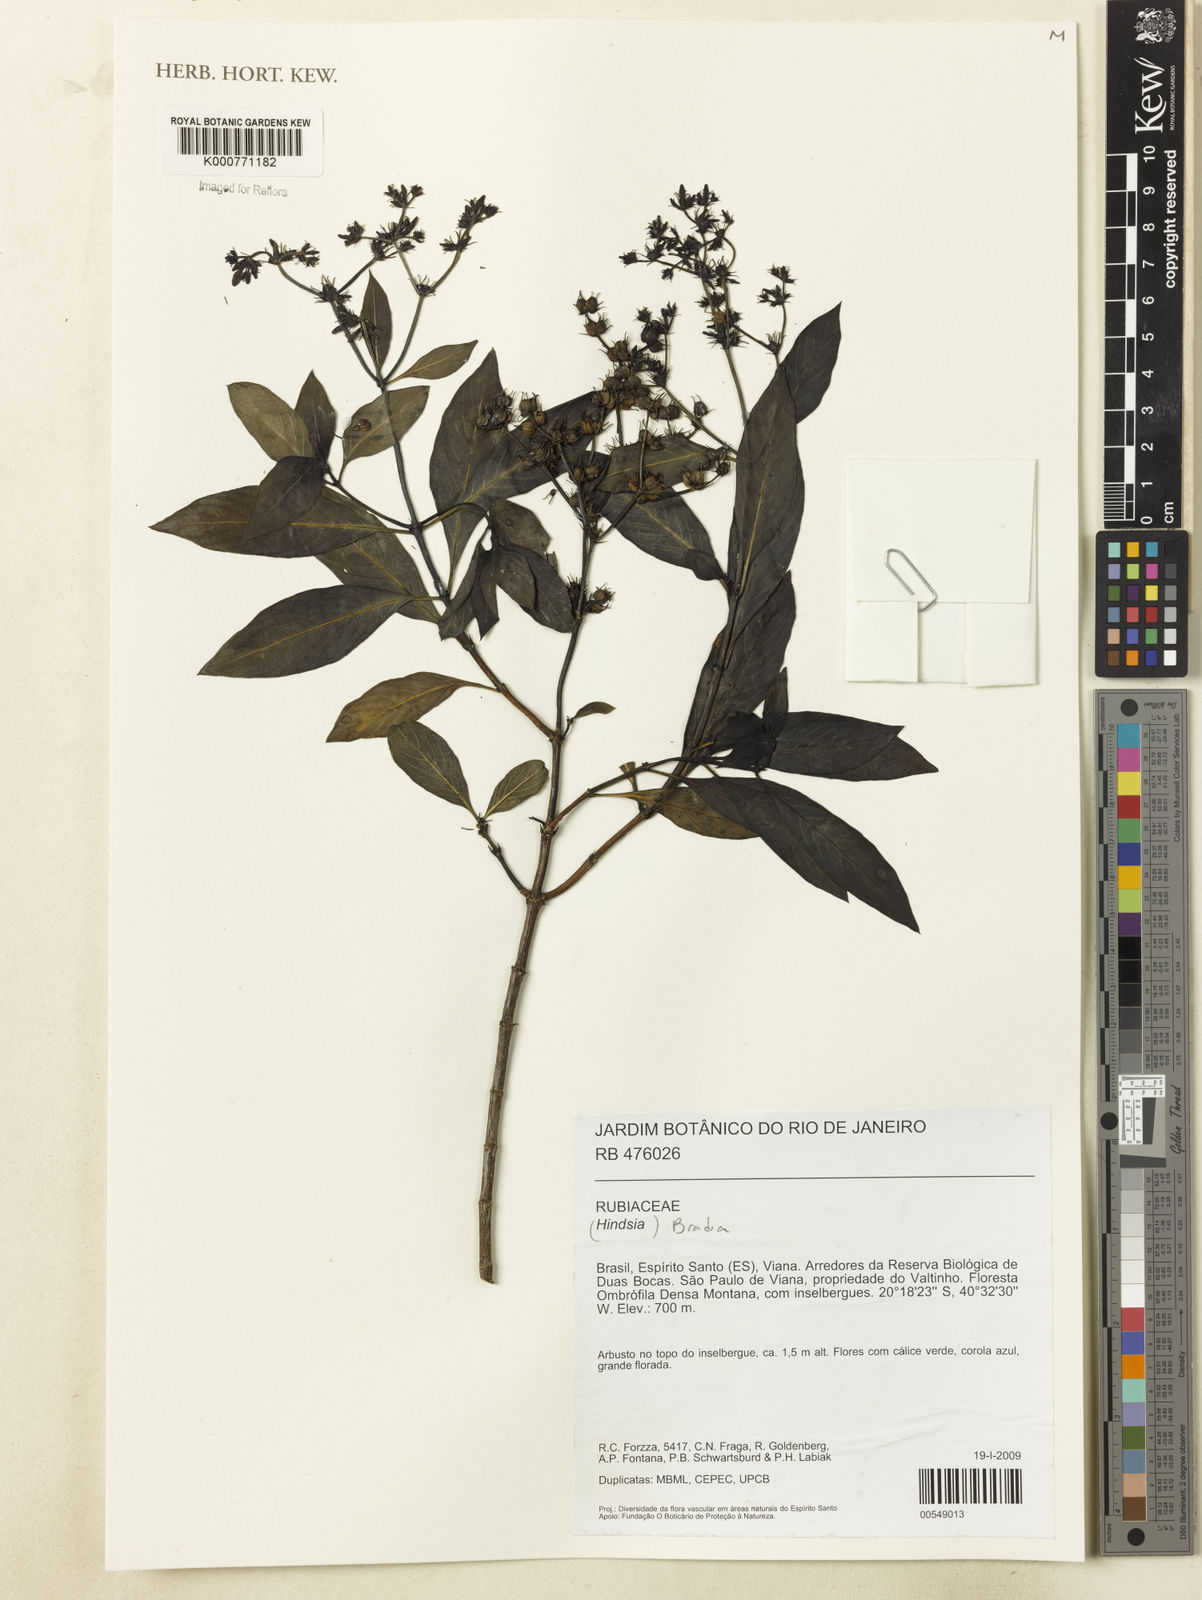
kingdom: Plantae
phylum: Tracheophyta
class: Magnoliopsida
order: Gentianales
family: Rubiaceae
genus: Bradea
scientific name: Bradea
